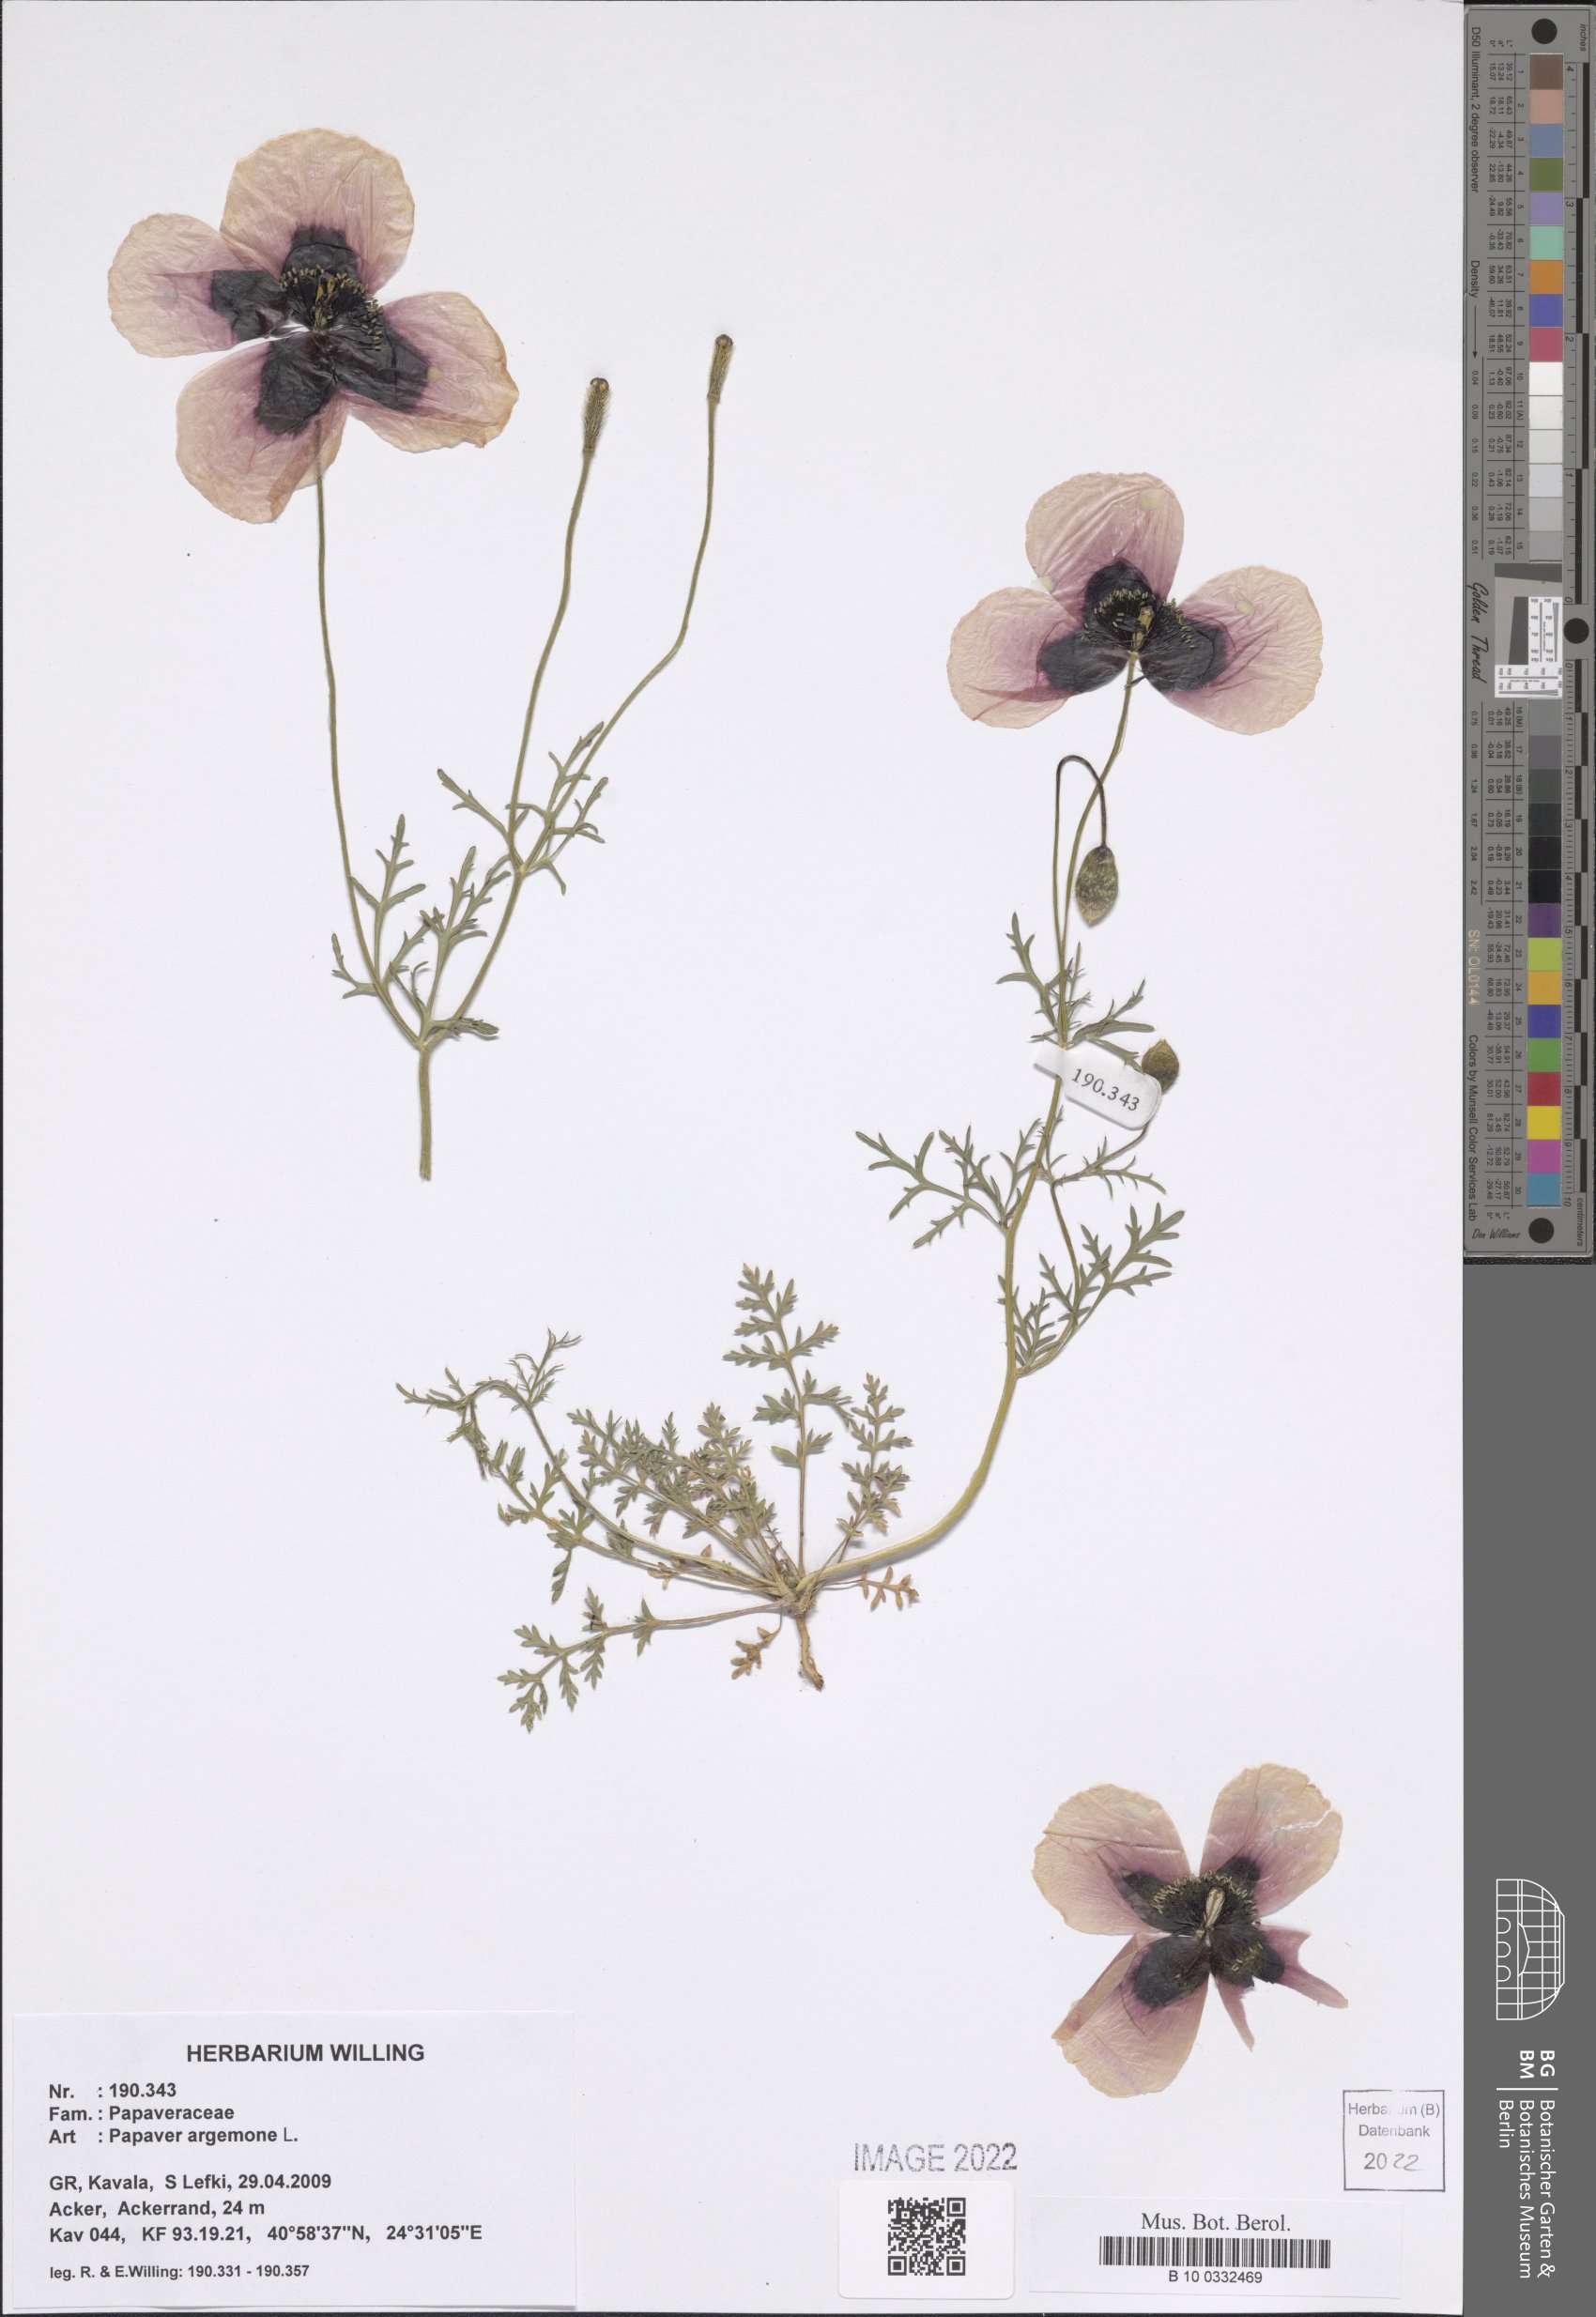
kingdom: Plantae
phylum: Tracheophyta
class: Magnoliopsida
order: Ranunculales
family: Papaveraceae
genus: Roemeria
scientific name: Roemeria argemone
